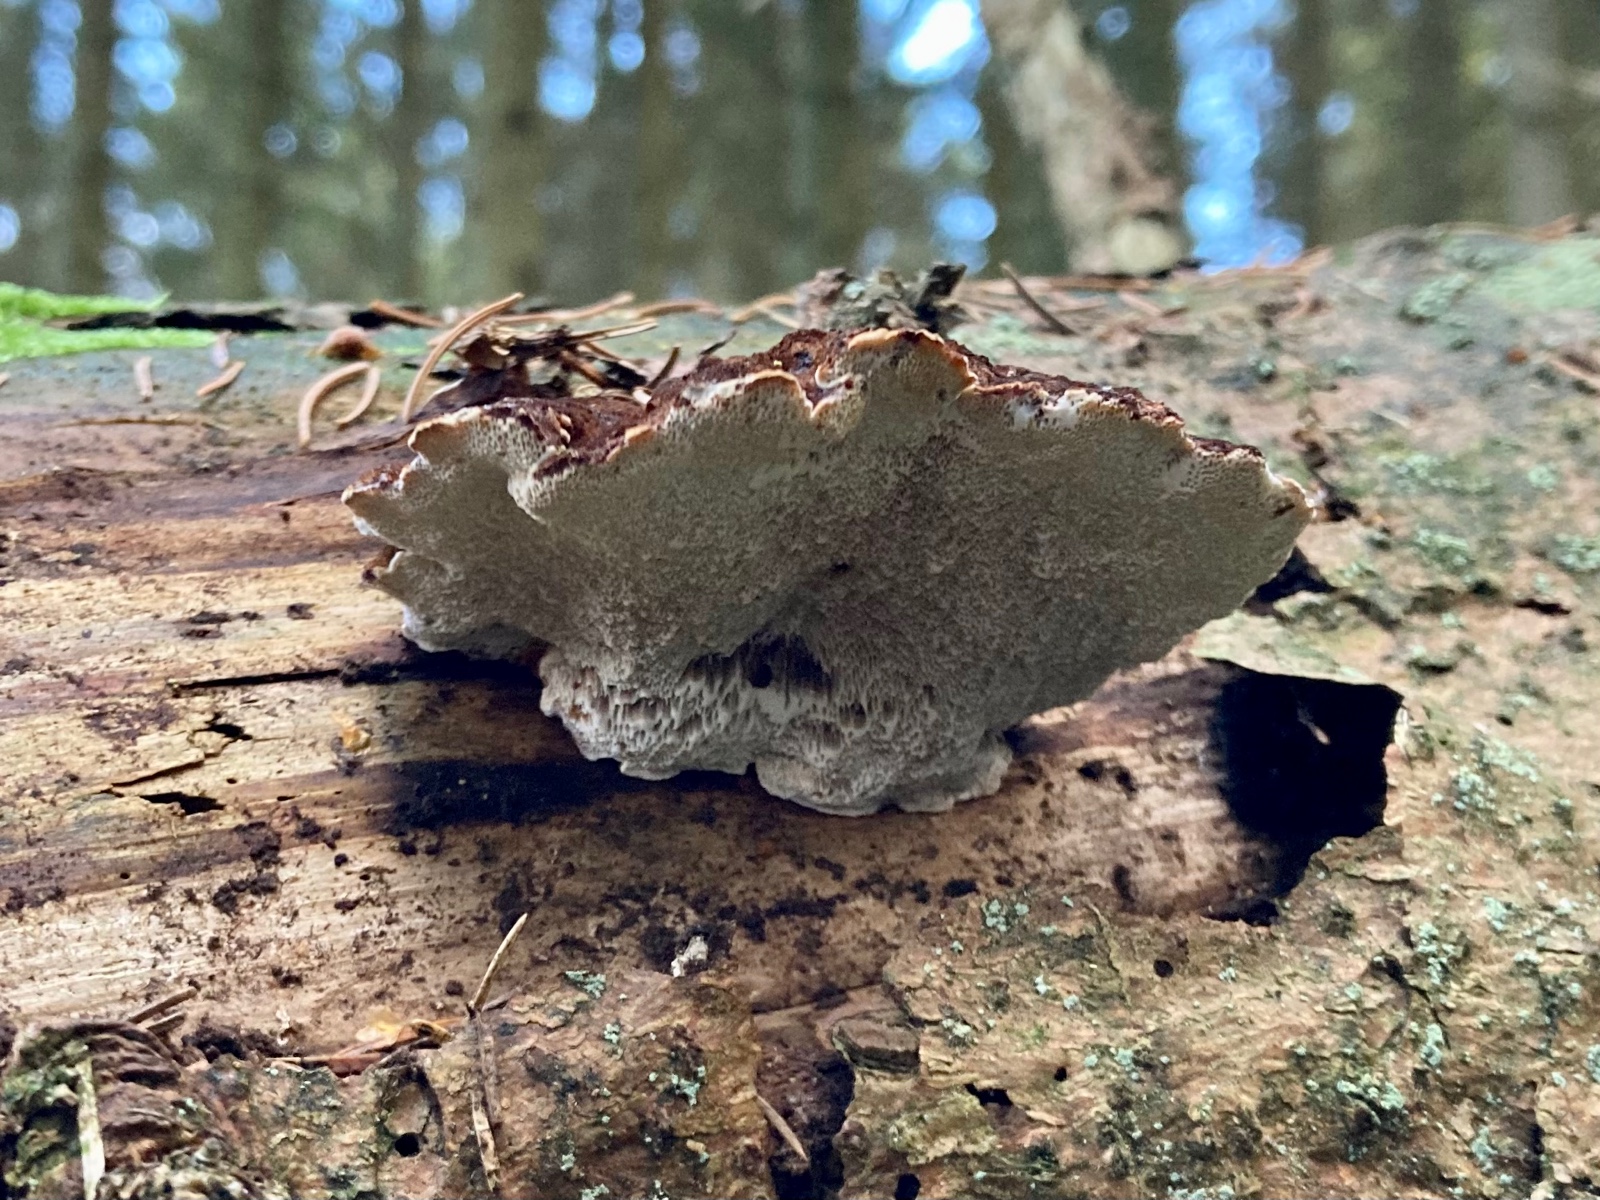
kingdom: Fungi
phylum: Basidiomycota
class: Agaricomycetes
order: Polyporales
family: Ischnodermataceae
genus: Ischnoderma
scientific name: Ischnoderma benzoinum
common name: gran-tjæreporesvamp
